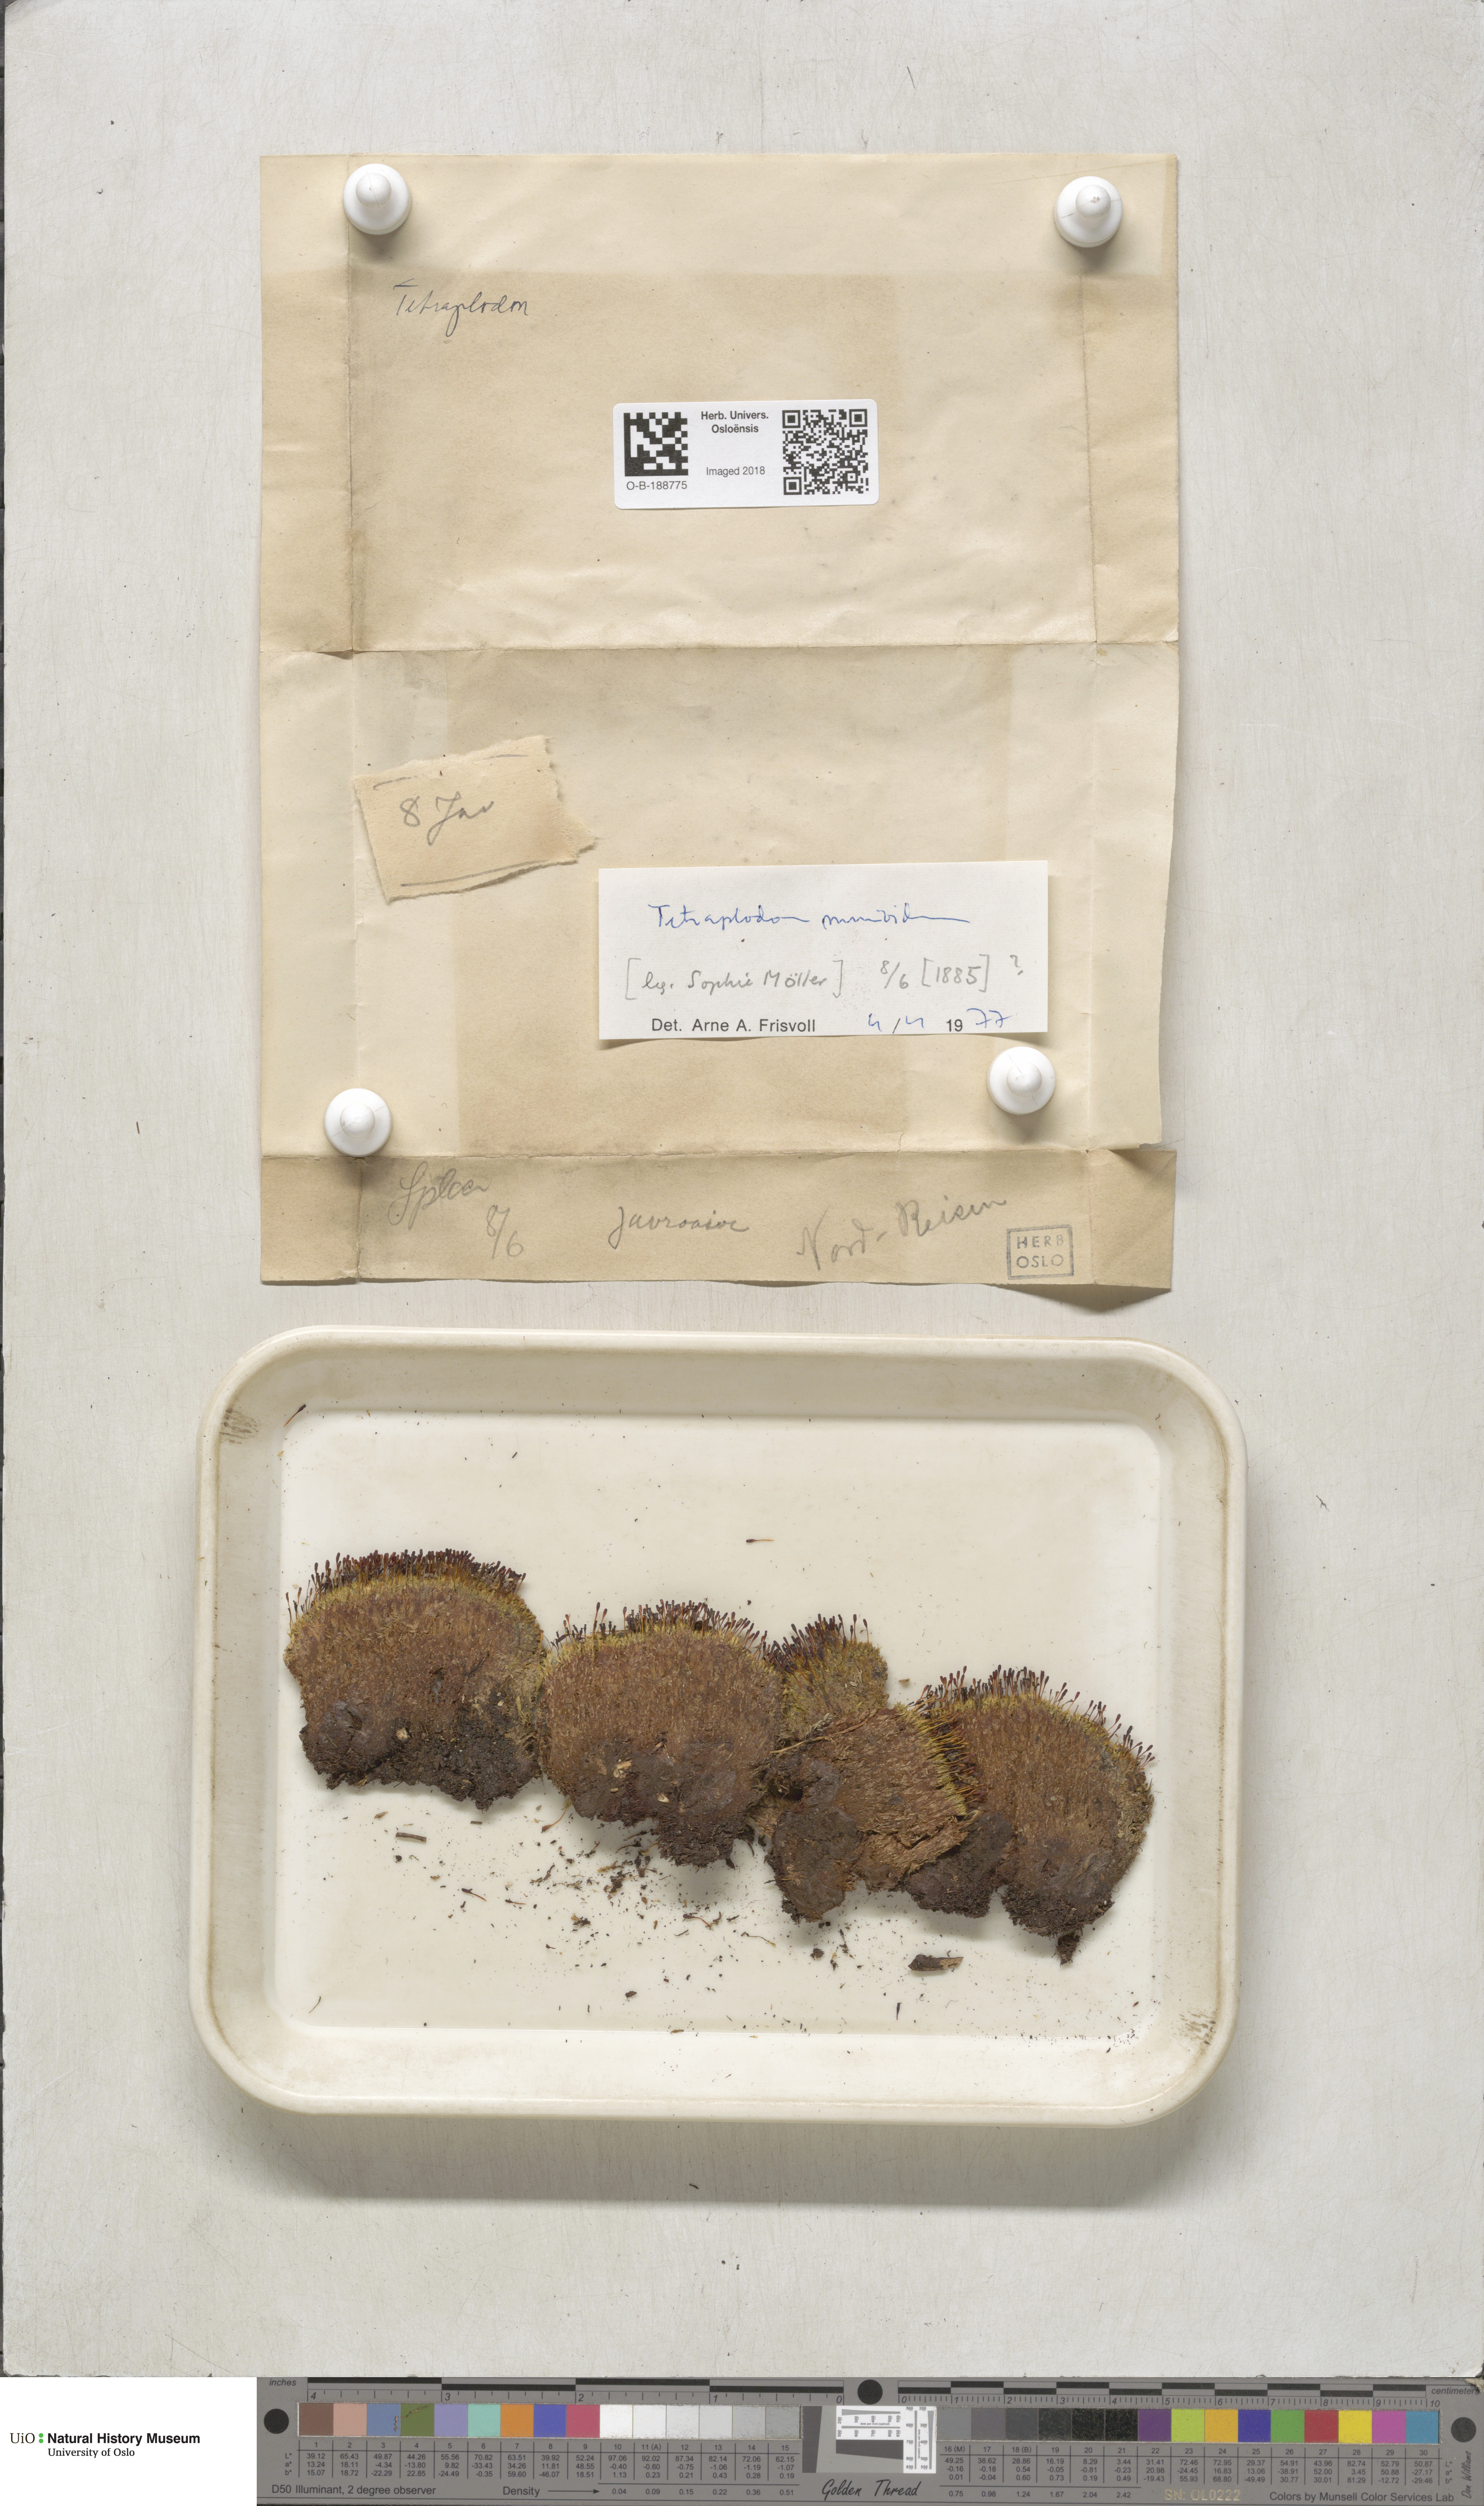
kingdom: Plantae
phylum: Bryophyta
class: Bryopsida
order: Splachnales
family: Splachnaceae
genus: Tetraplodon
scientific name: Tetraplodon mnioides
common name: Entire-leaved nitrogen moss
